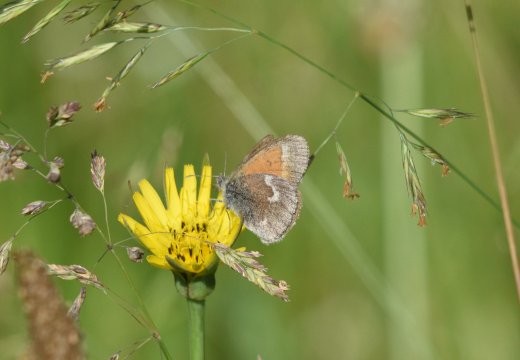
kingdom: Animalia
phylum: Arthropoda
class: Insecta
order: Lepidoptera
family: Nymphalidae
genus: Coenonympha
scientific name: Coenonympha tullia
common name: Large Heath
